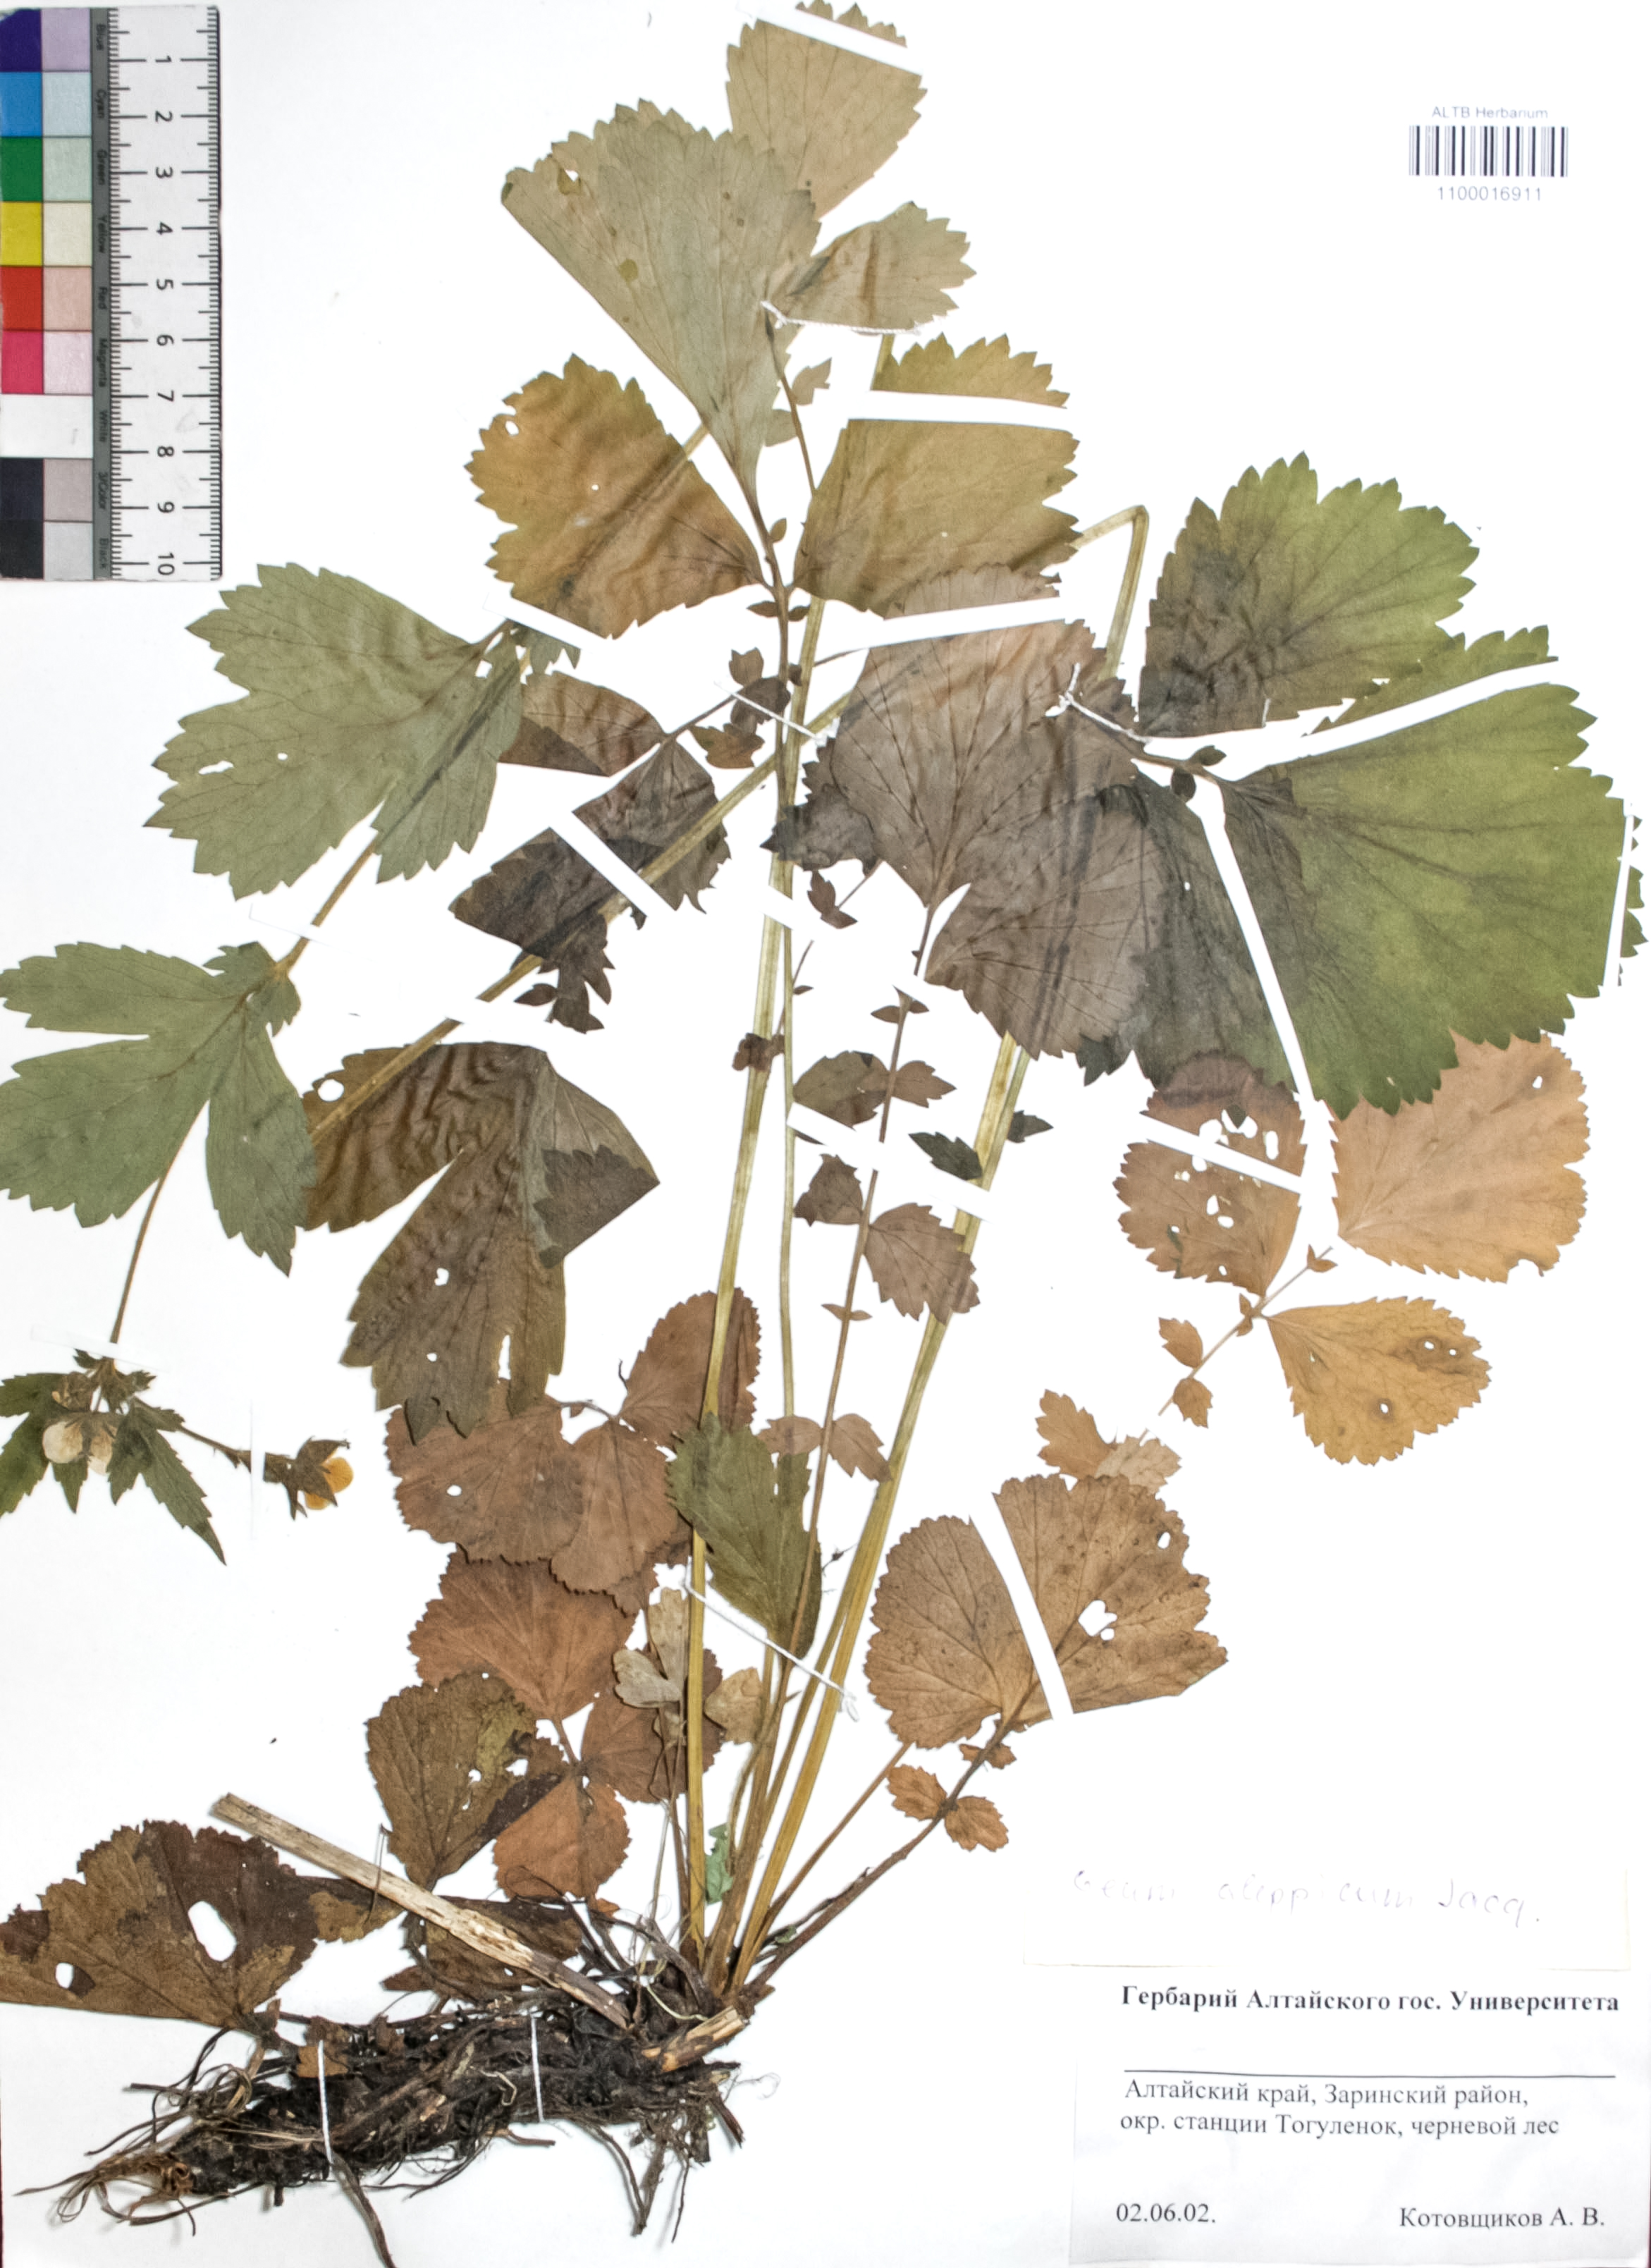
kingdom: Plantae
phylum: Tracheophyta
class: Magnoliopsida
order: Rosales
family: Rosaceae
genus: Geum
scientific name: Geum aleppicum
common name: Yellow avens
